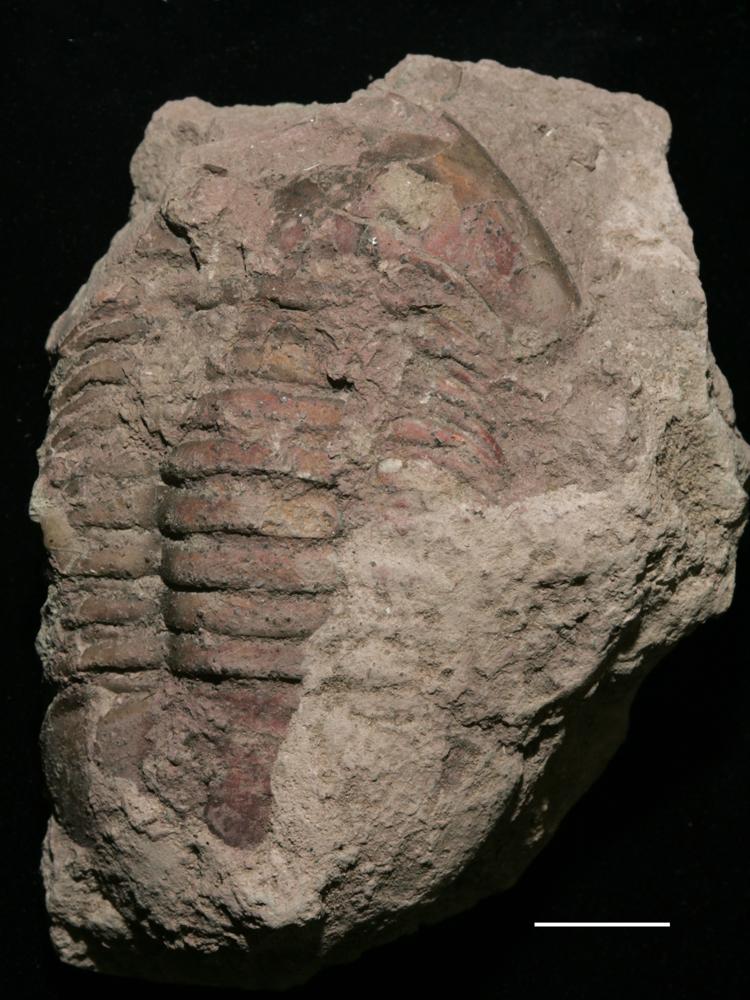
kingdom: Animalia
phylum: Arthropoda
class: Trilobita
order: Asaphida
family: Asaphidae
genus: Asaphus
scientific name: Asaphus expansus
